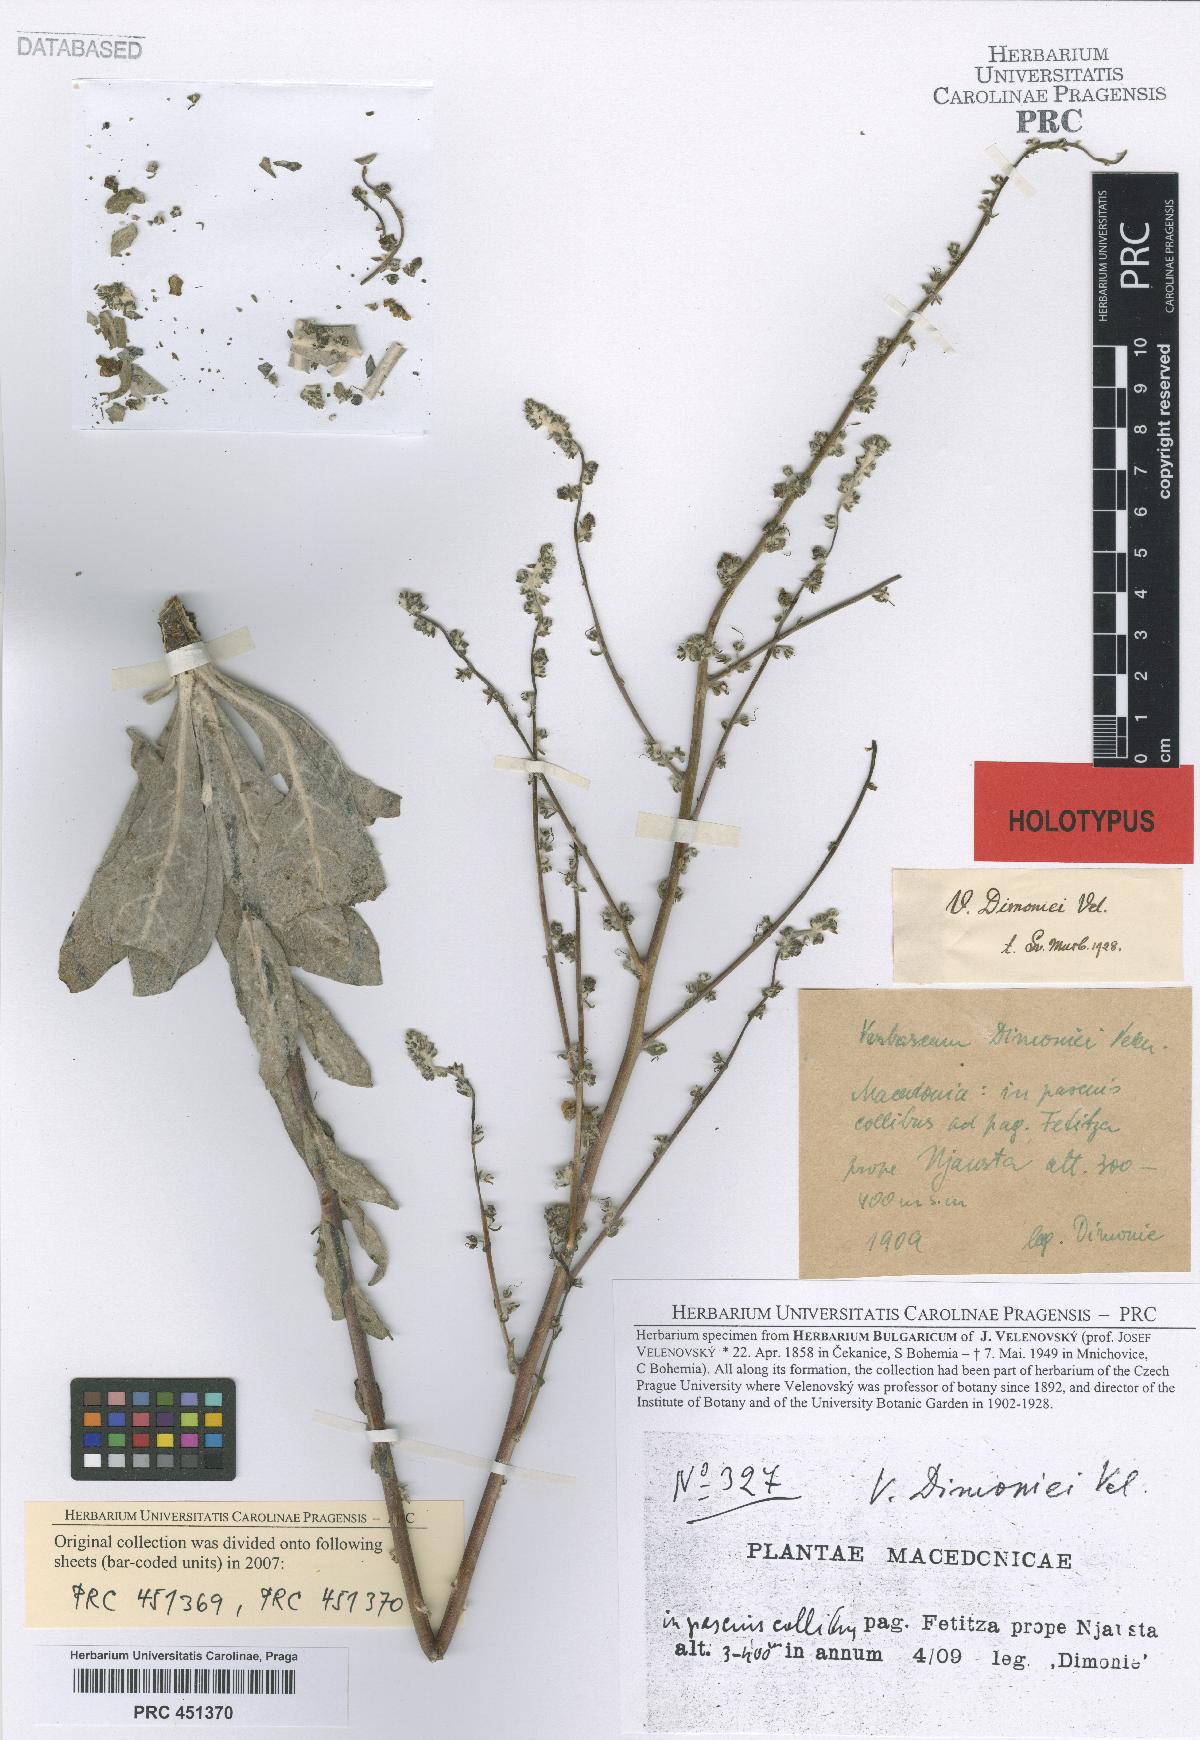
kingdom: Plantae
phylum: Tracheophyta
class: Magnoliopsida
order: Lamiales
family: Scrophulariaceae
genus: Verbascum
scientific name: Verbascum dimoniei
